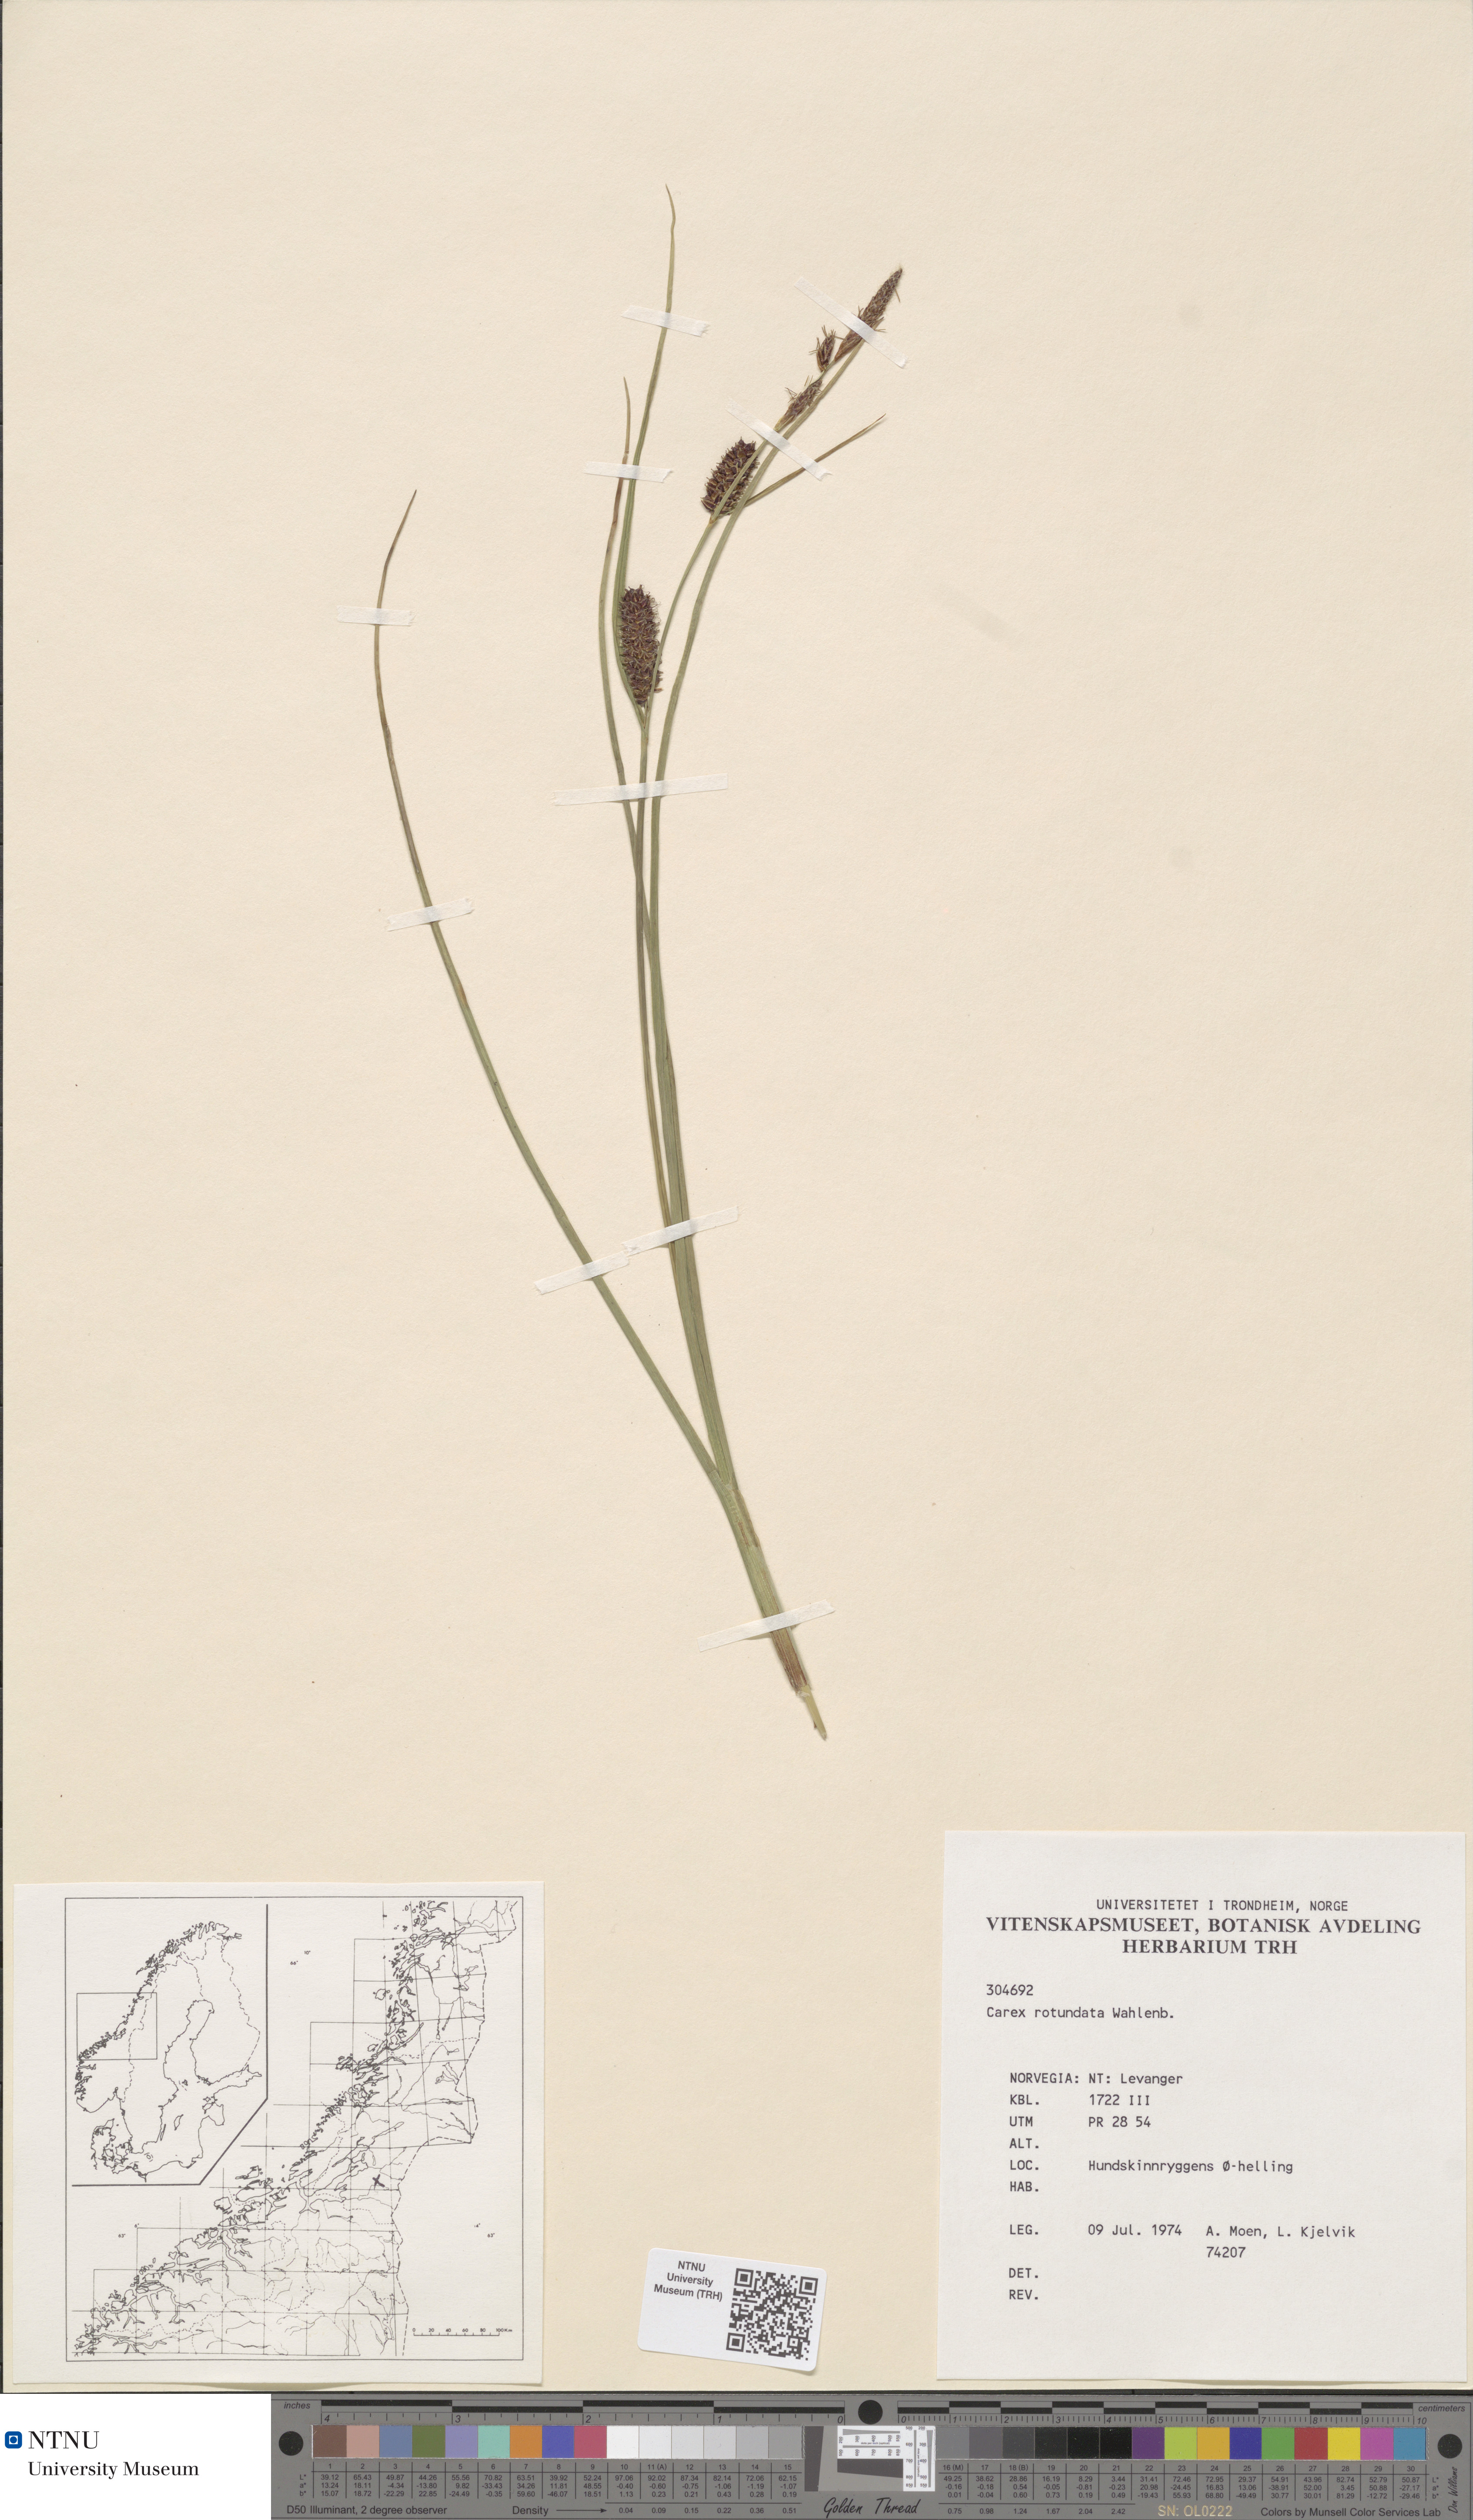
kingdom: Plantae
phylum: Tracheophyta
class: Liliopsida
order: Poales
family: Cyperaceae
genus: Carex
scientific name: Carex rotundata
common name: Round-fruited sedge
